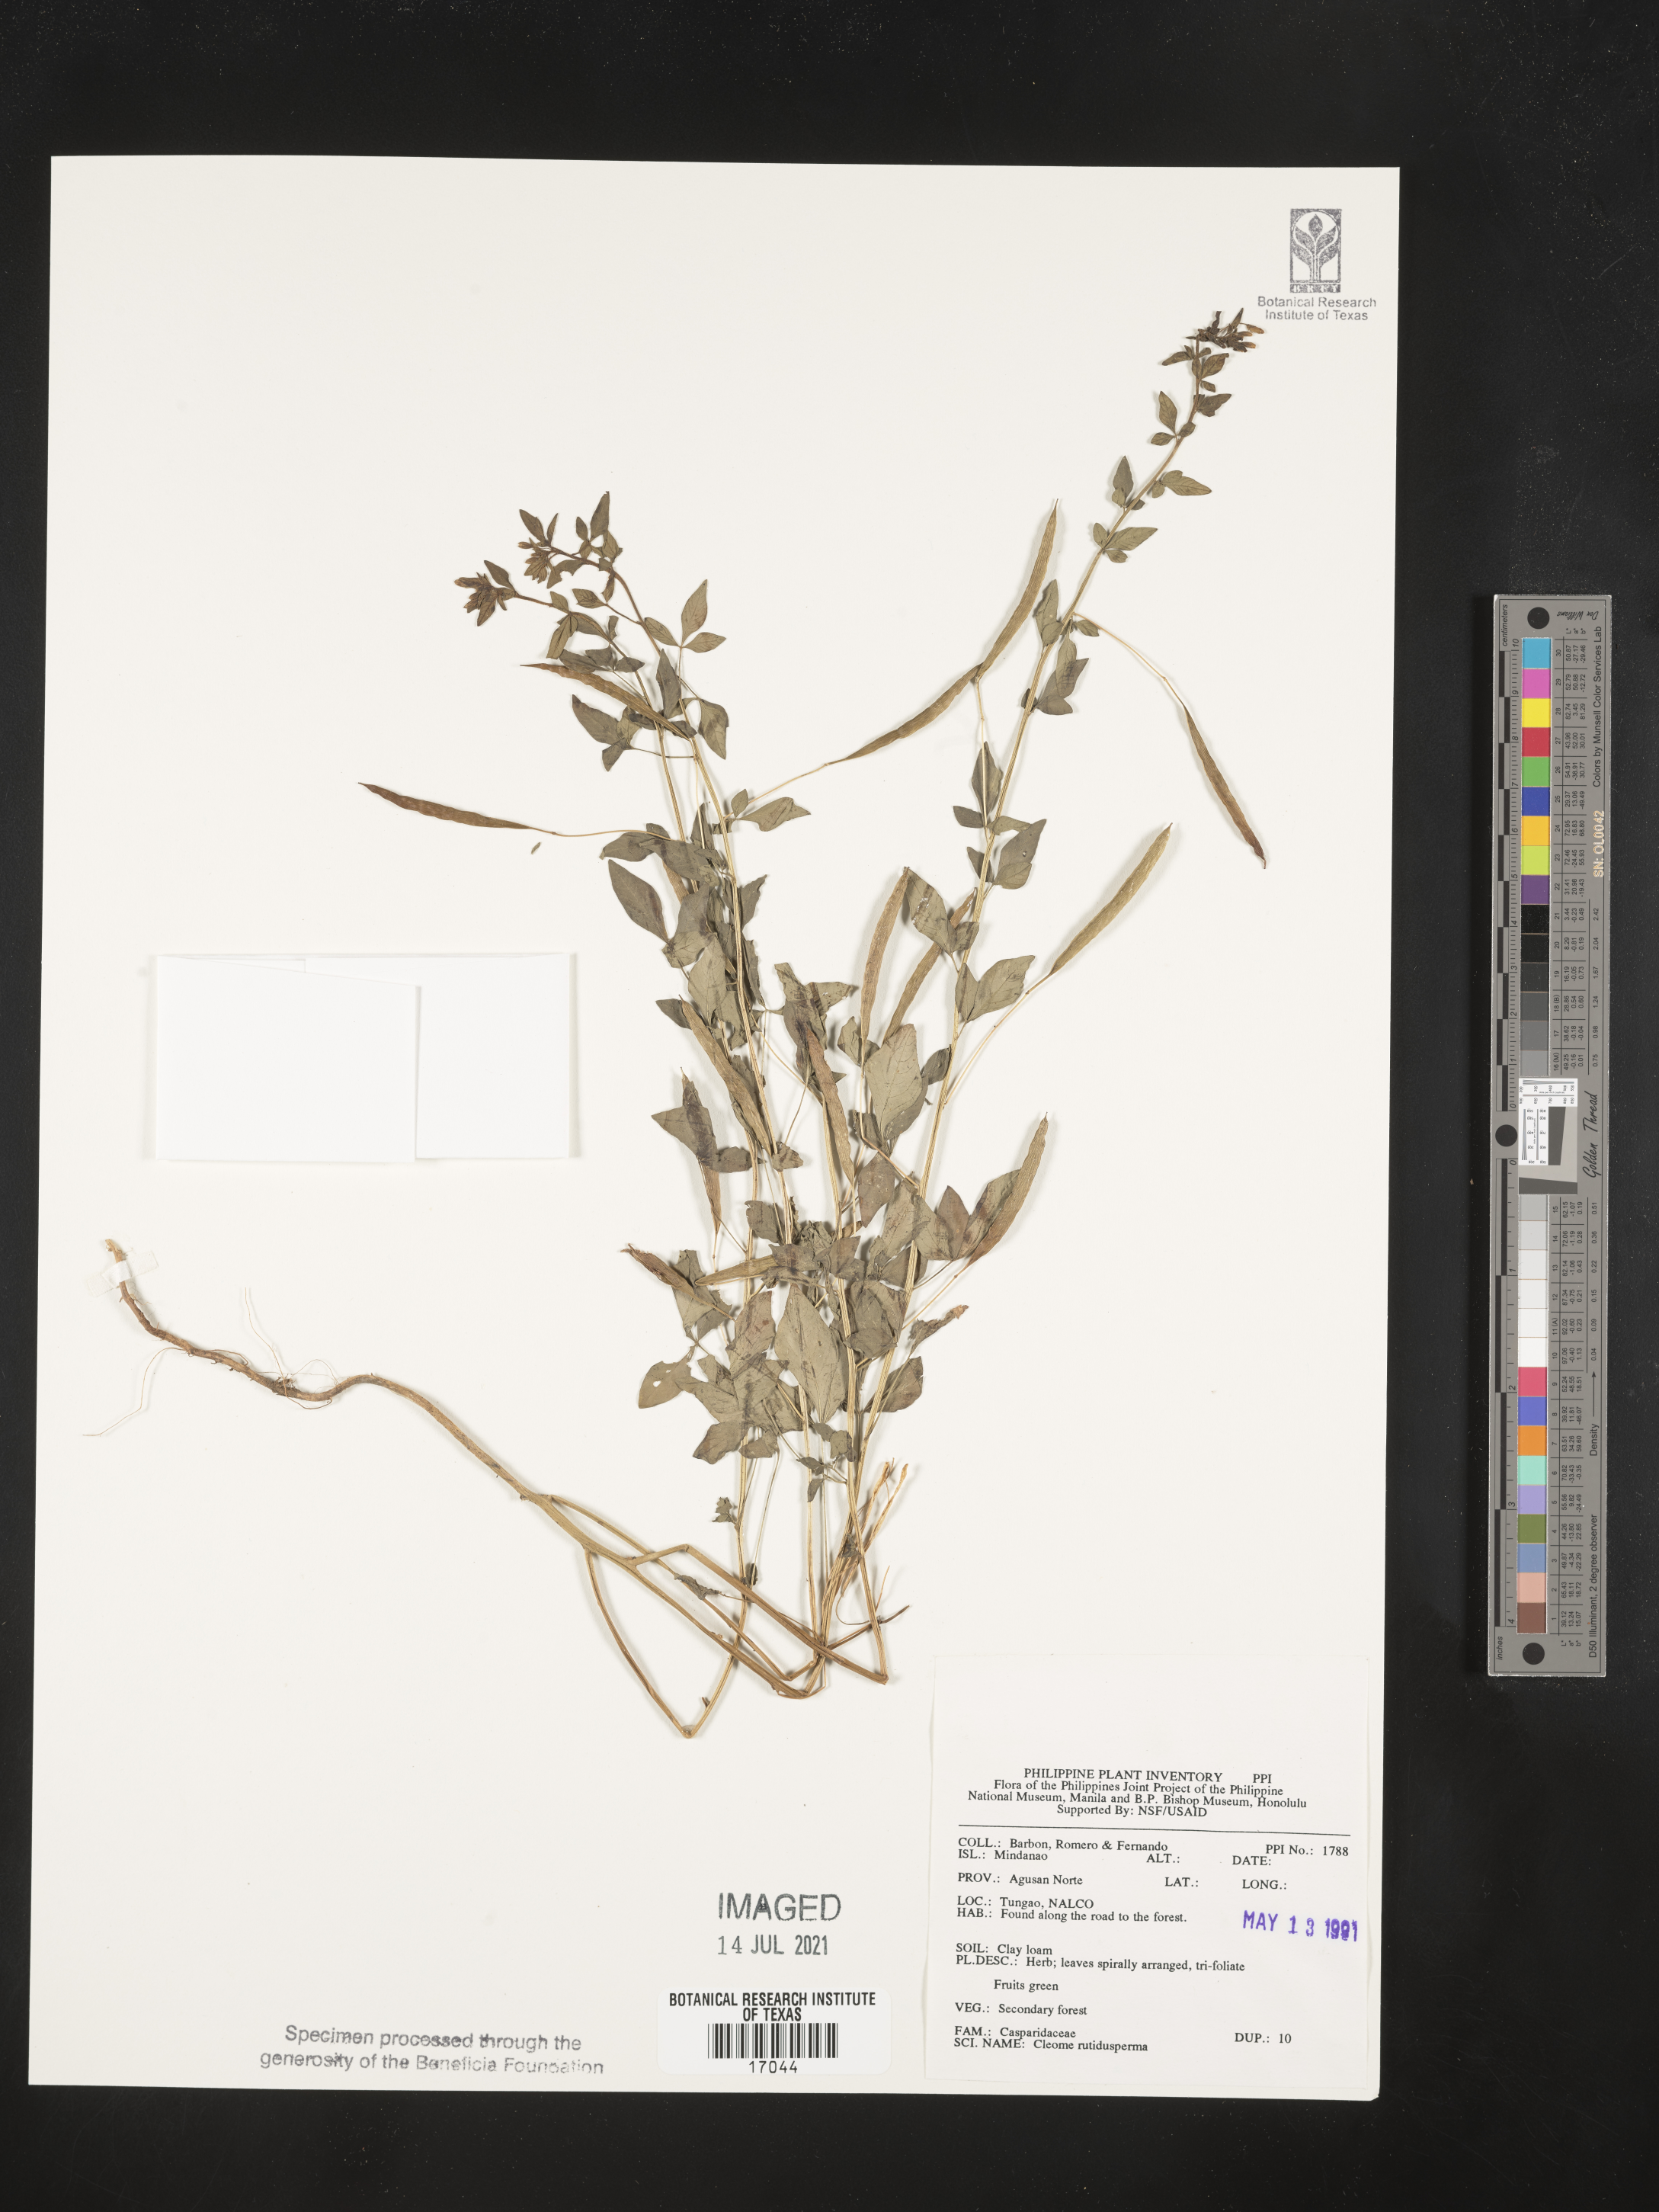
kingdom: Plantae
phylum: Tracheophyta
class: Magnoliopsida
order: Brassicales
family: Cleomaceae
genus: Sieruela
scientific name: Sieruela rutidosperma
